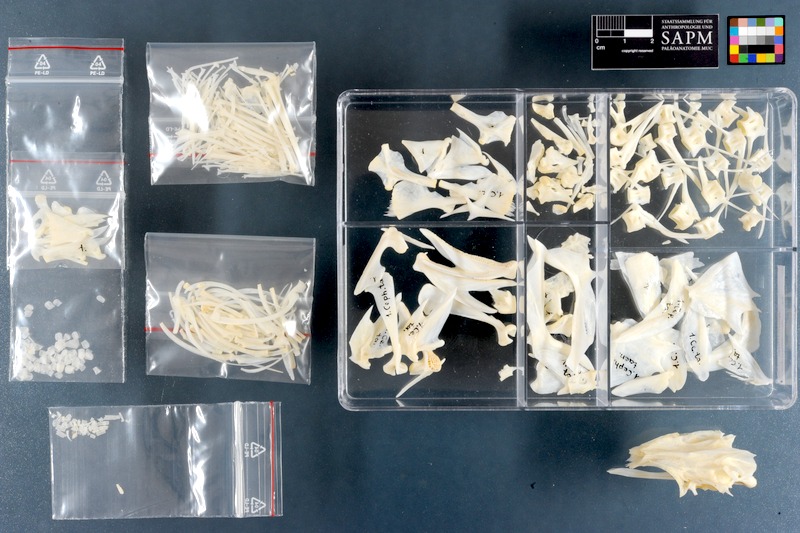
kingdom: Animalia
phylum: Chordata
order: Perciformes
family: Serranidae
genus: Cephalopholis
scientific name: Cephalopholis taeniops
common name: African hind
